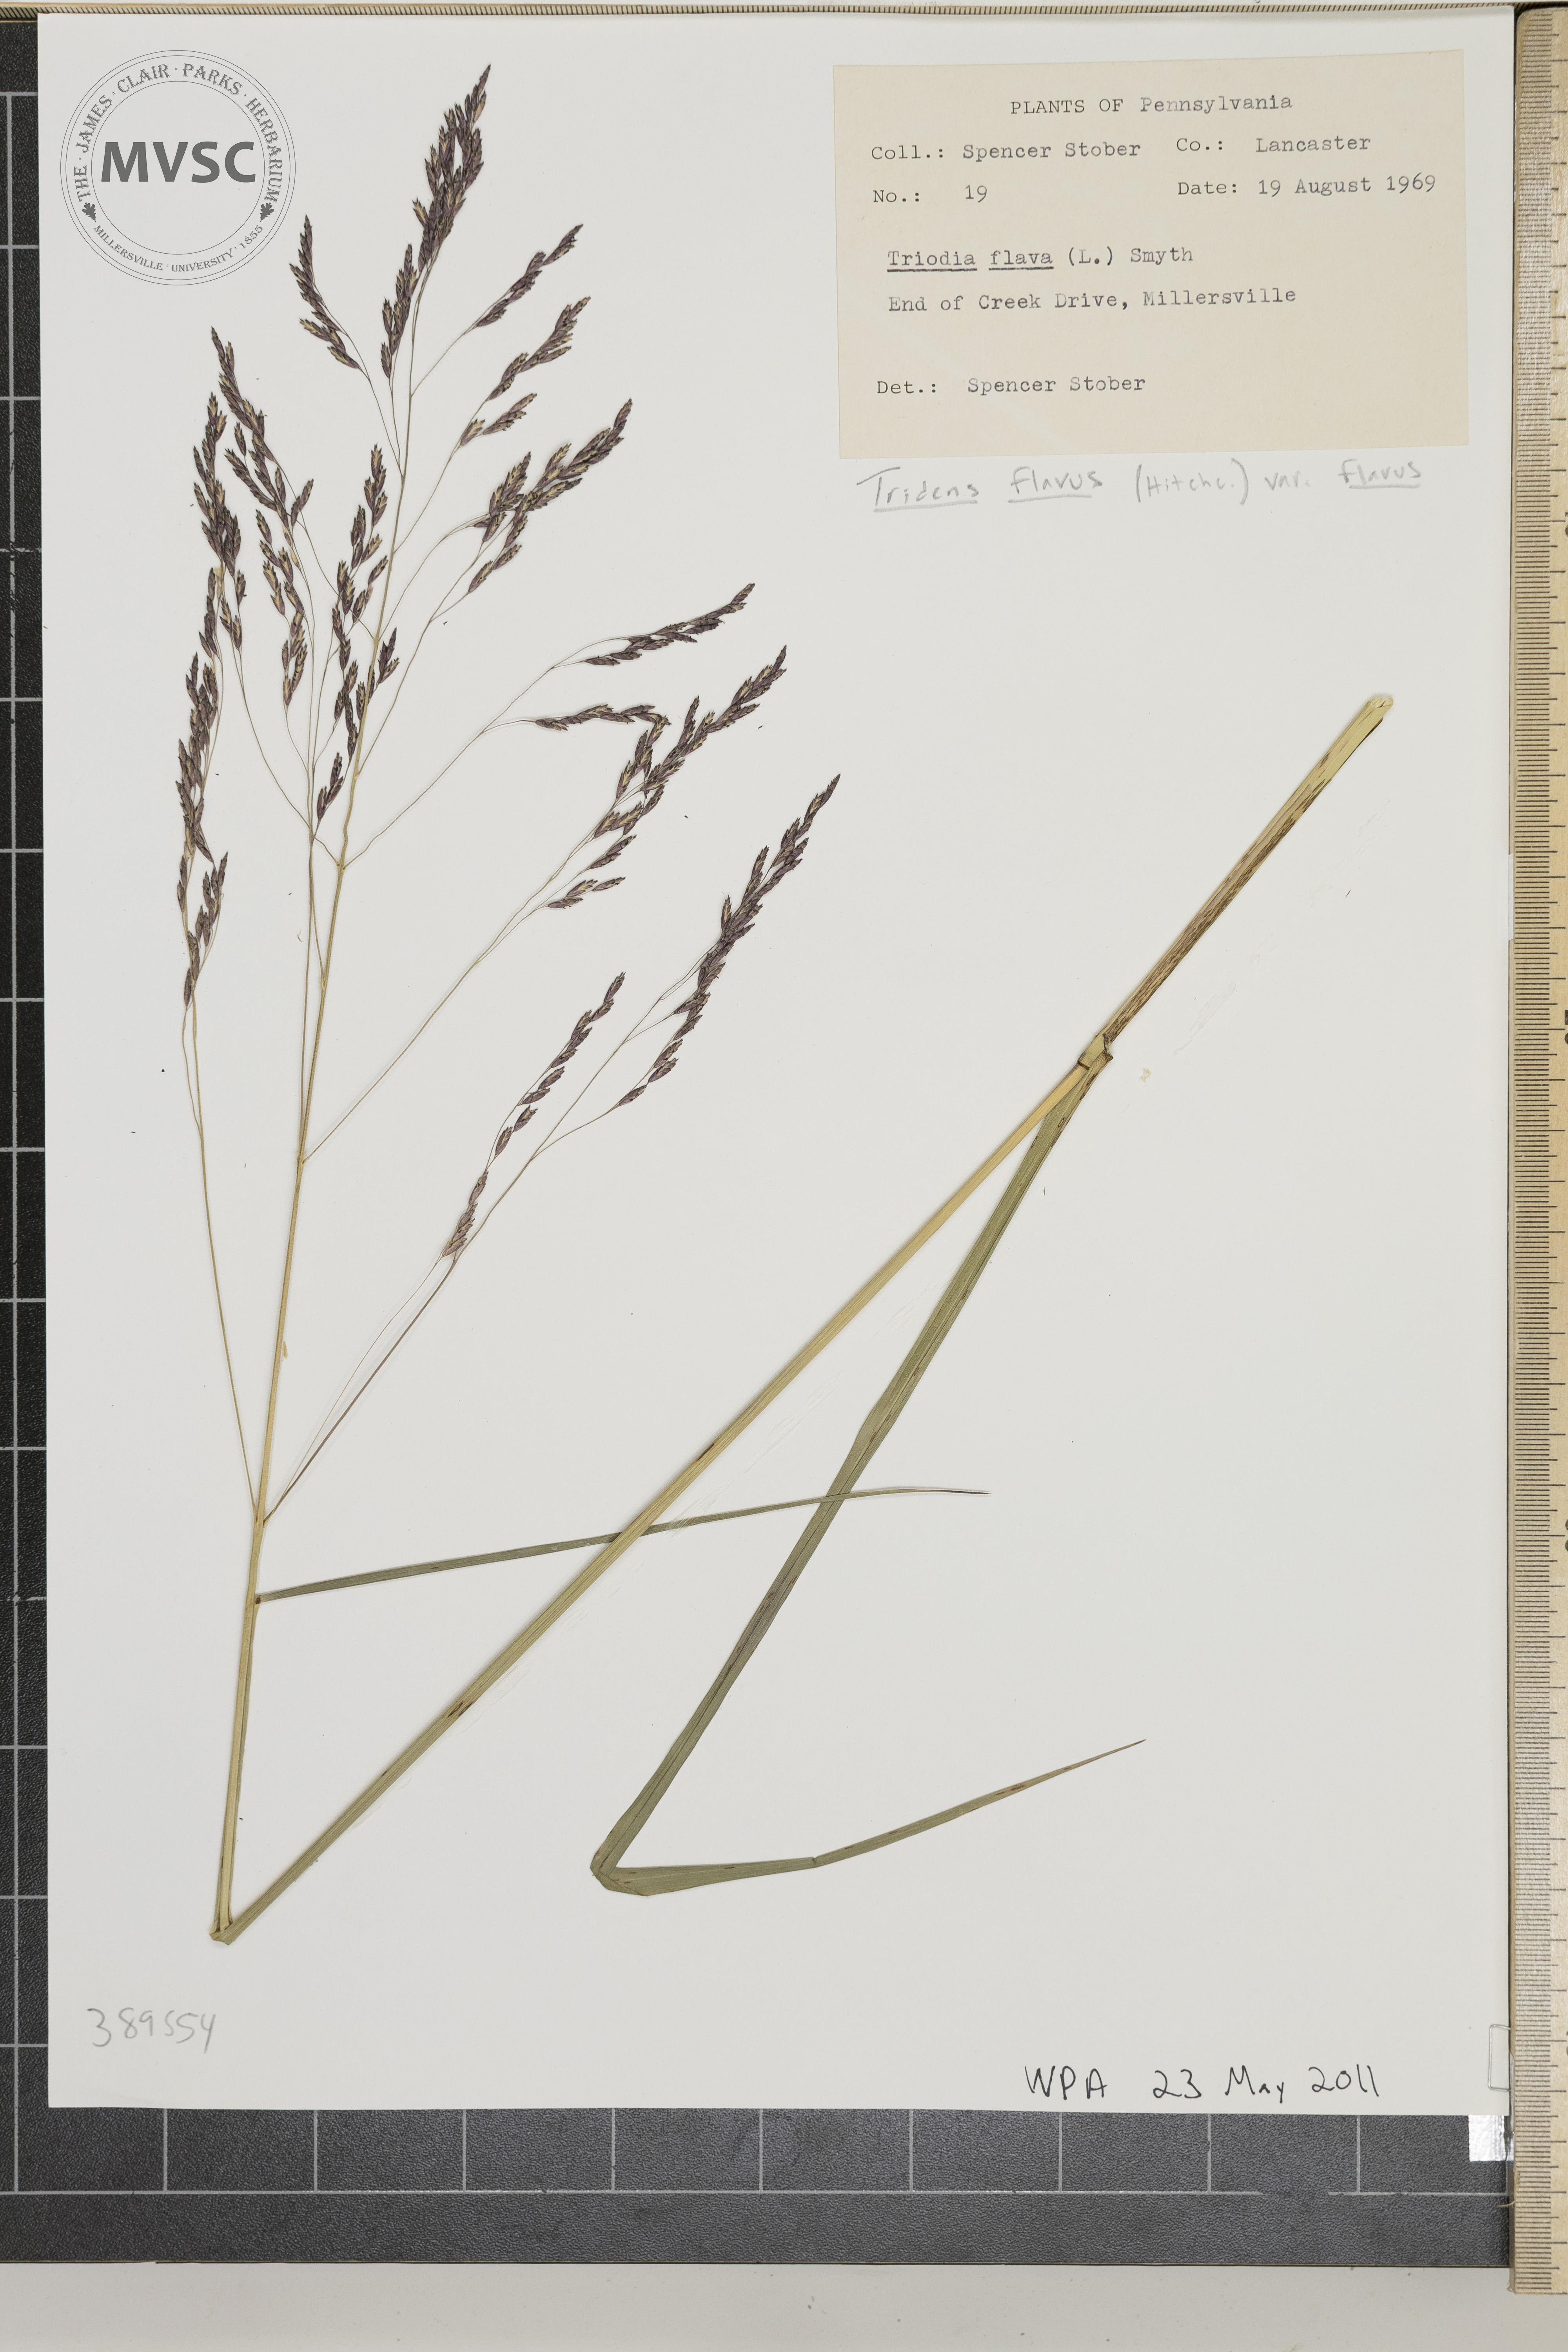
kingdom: Plantae
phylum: Tracheophyta
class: Liliopsida
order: Poales
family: Poaceae
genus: Tridens
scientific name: Tridens flavus
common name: Purpletop
